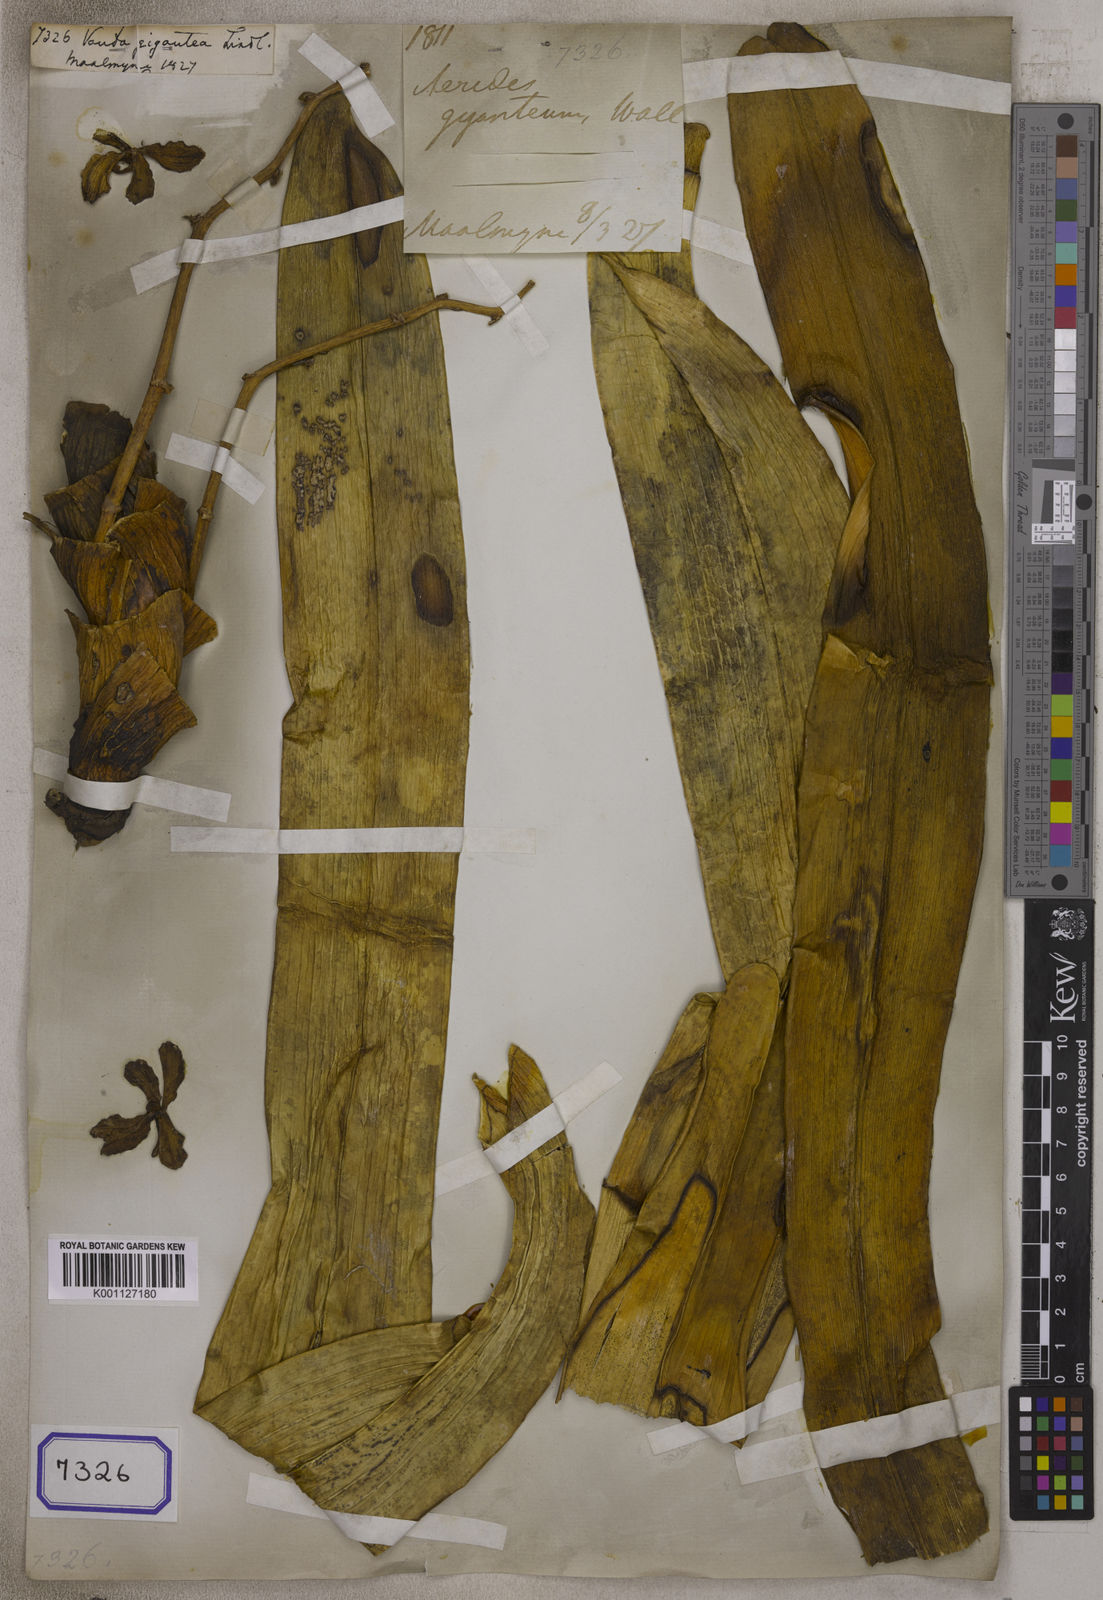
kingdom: Plantae
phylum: Tracheophyta
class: Liliopsida
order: Asparagales
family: Orchidaceae
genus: Vandopsis
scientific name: Vandopsis gigantea
